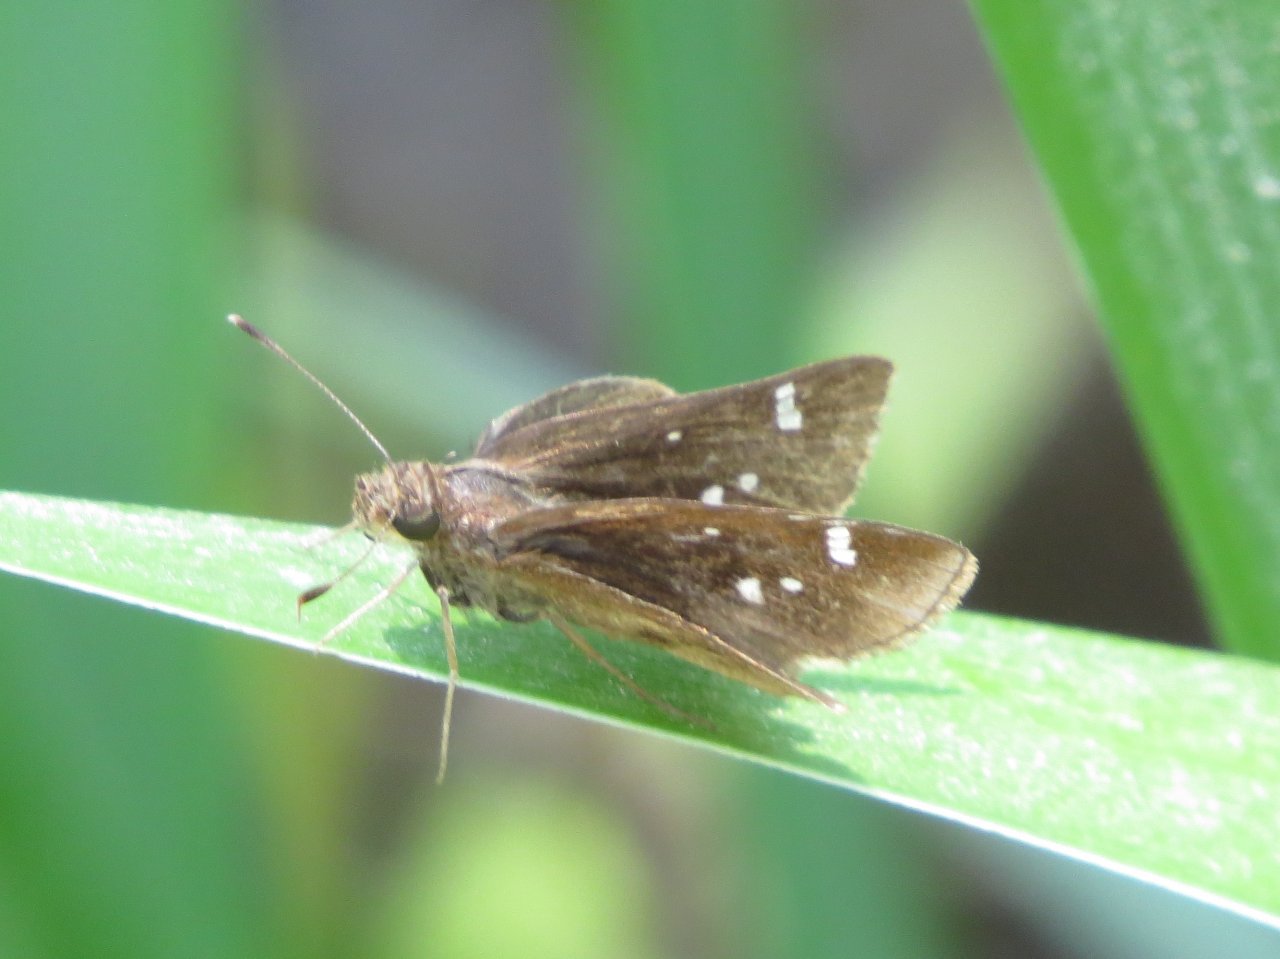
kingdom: Animalia
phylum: Arthropoda
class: Insecta
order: Lepidoptera
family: Hesperiidae
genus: Calpodes
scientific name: Calpodes ethlius
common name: Brazilian Skipper
